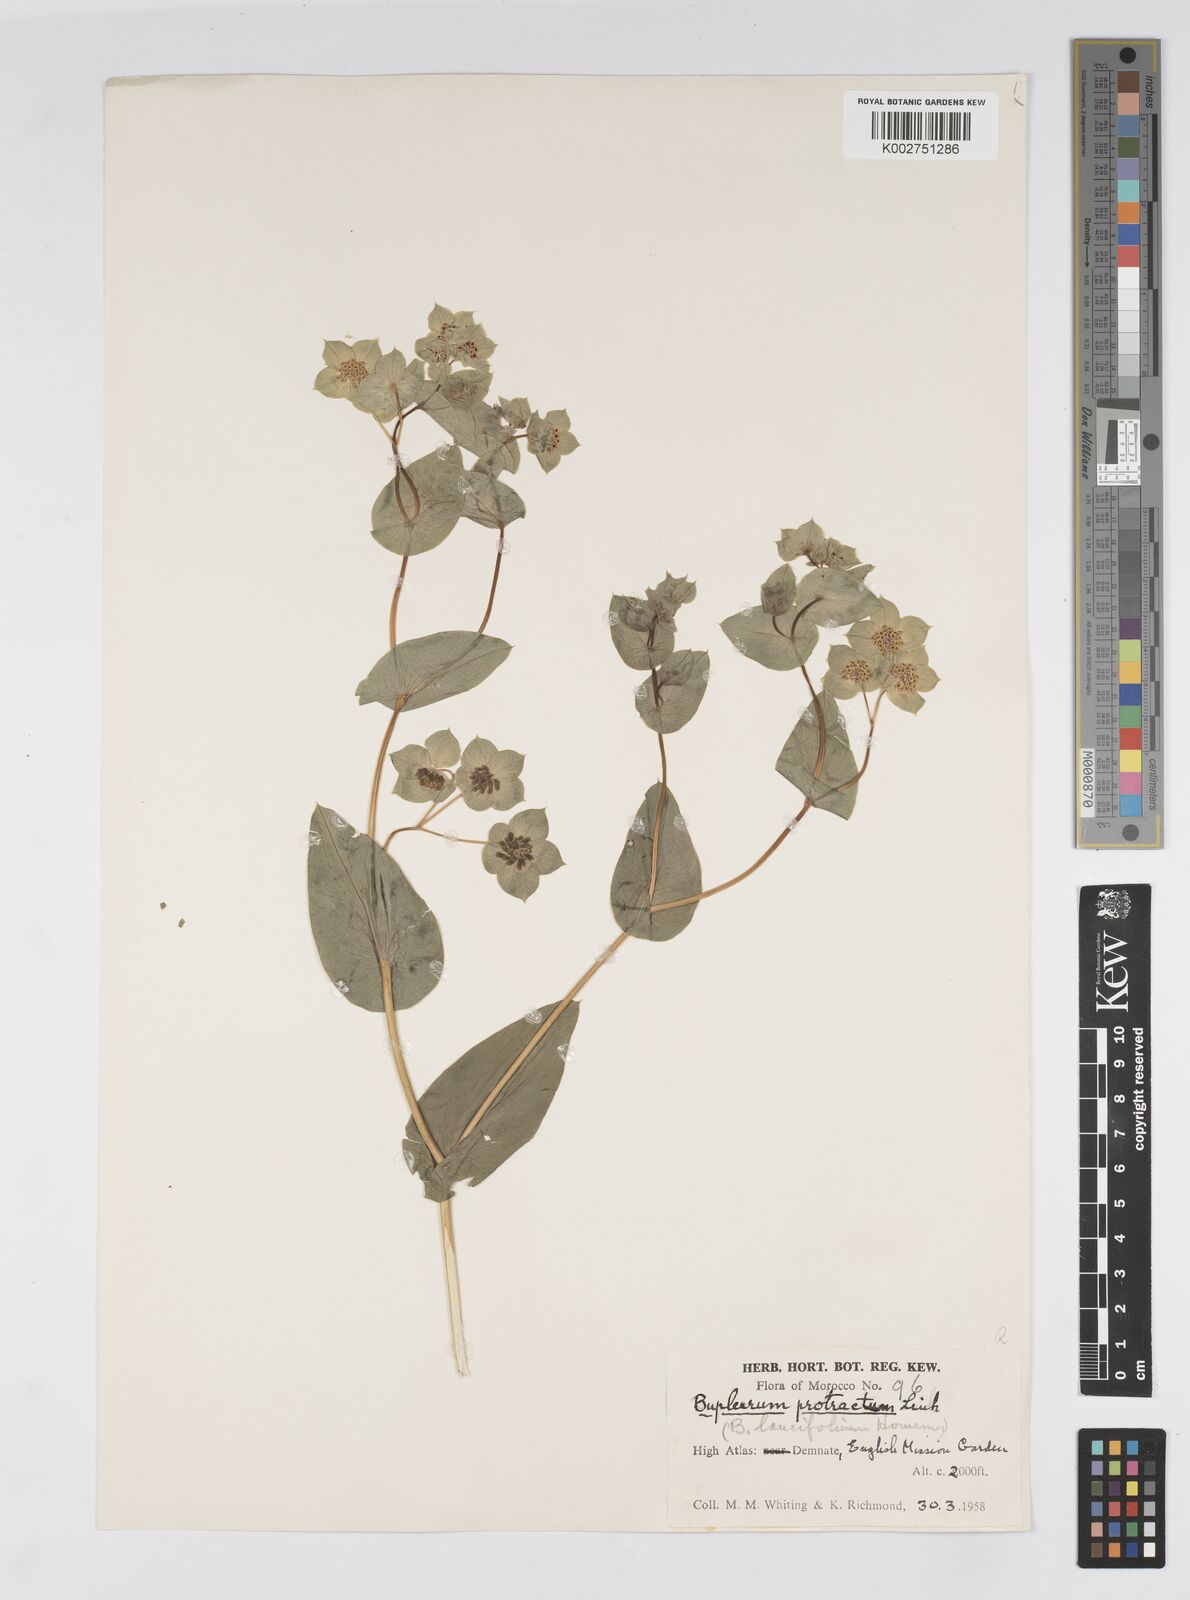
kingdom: Plantae
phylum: Tracheophyta
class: Magnoliopsida
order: Apiales
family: Apiaceae
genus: Bupleurum
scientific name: Bupleurum subovatum
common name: False thorow-wax
